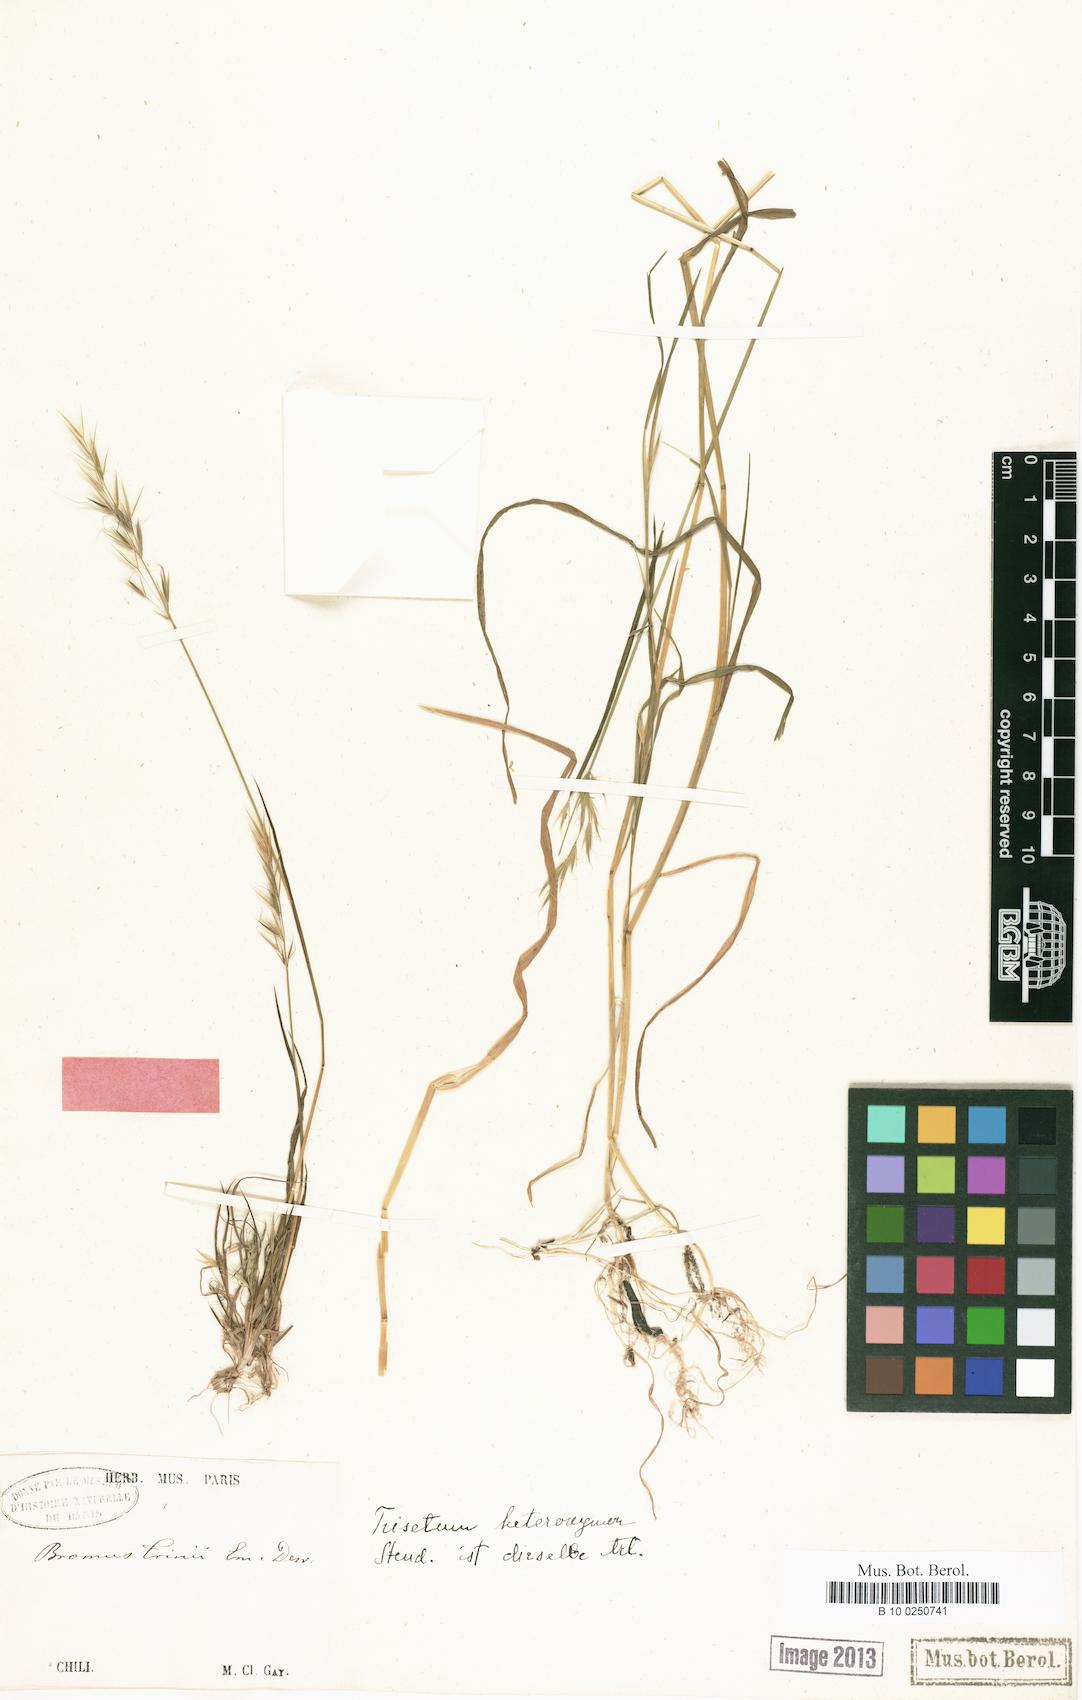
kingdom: Plantae
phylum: Tracheophyta
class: Liliopsida
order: Poales
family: Poaceae
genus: Bromus
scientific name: Bromus berteroanus
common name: Chilean chess
